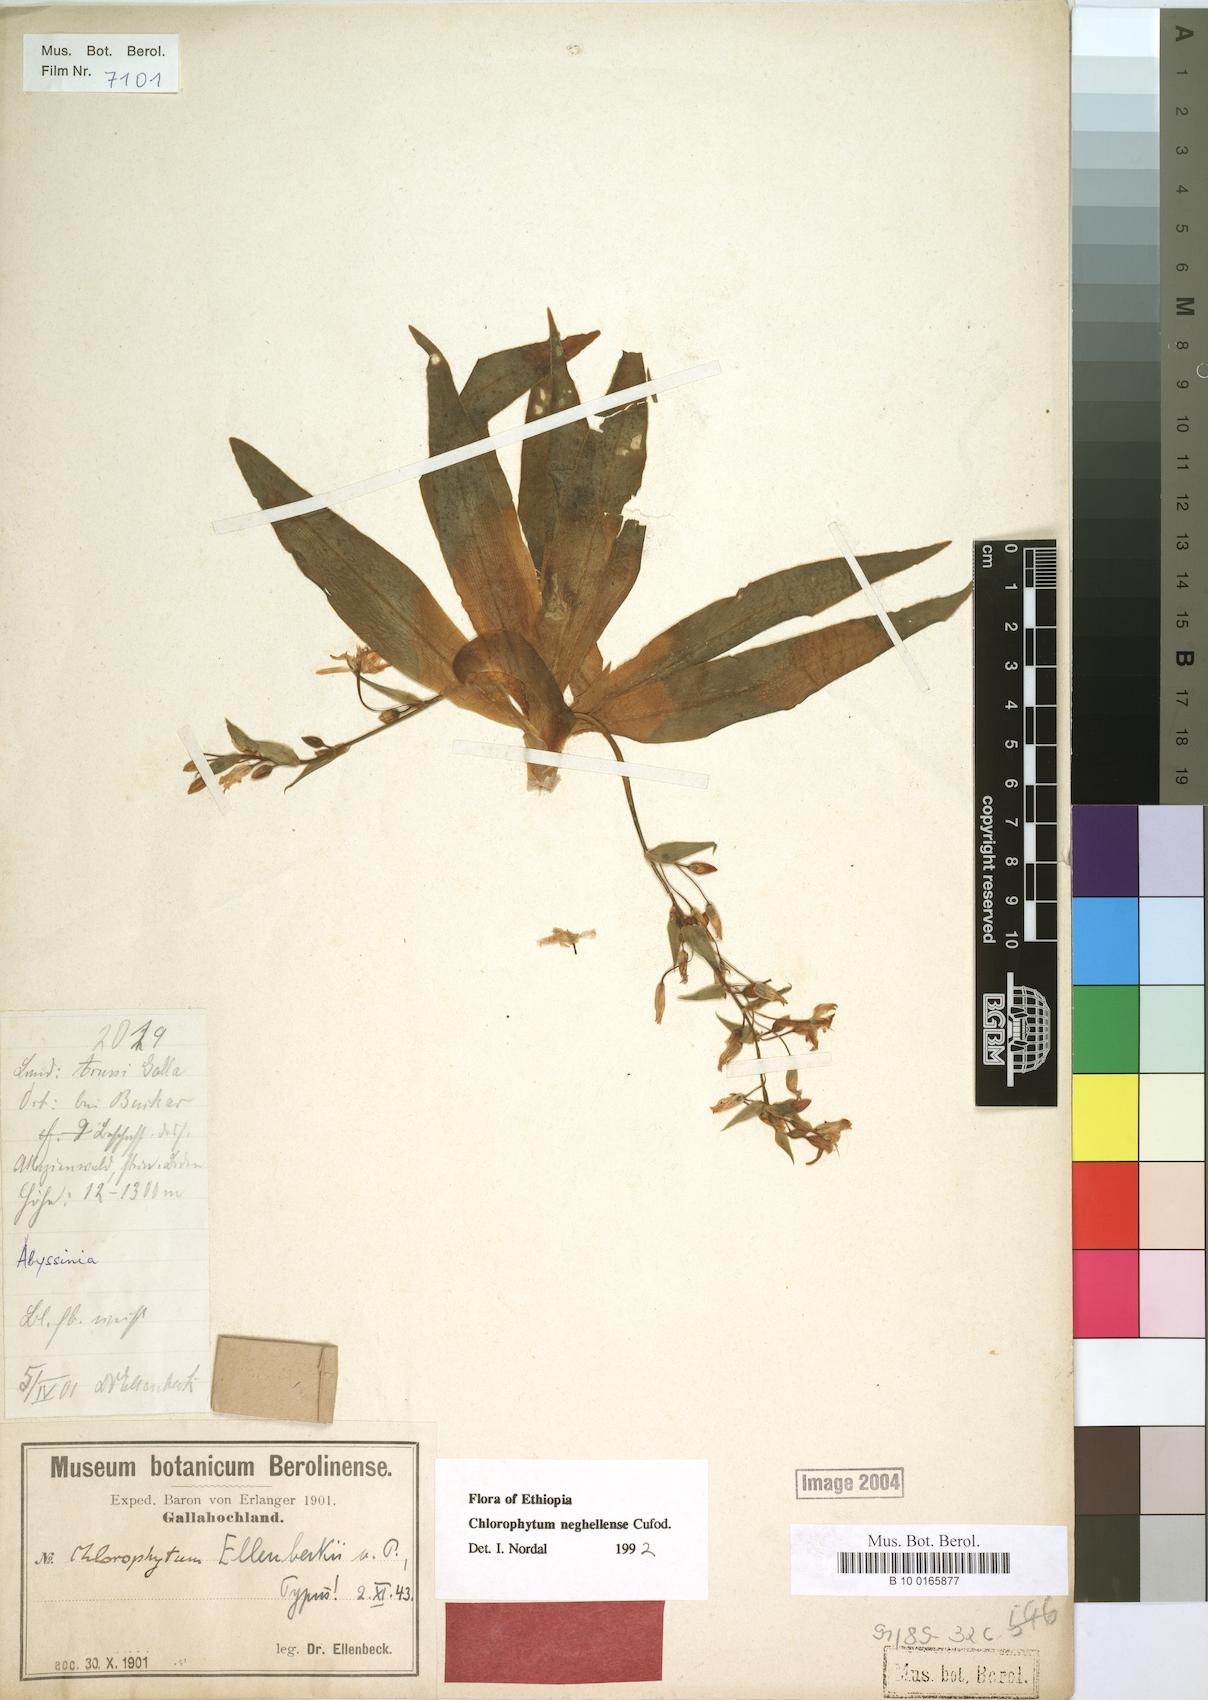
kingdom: Plantae
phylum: Tracheophyta
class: Liliopsida
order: Asparagales
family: Asparagaceae
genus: Anthericum
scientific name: Anthericum neghellense
